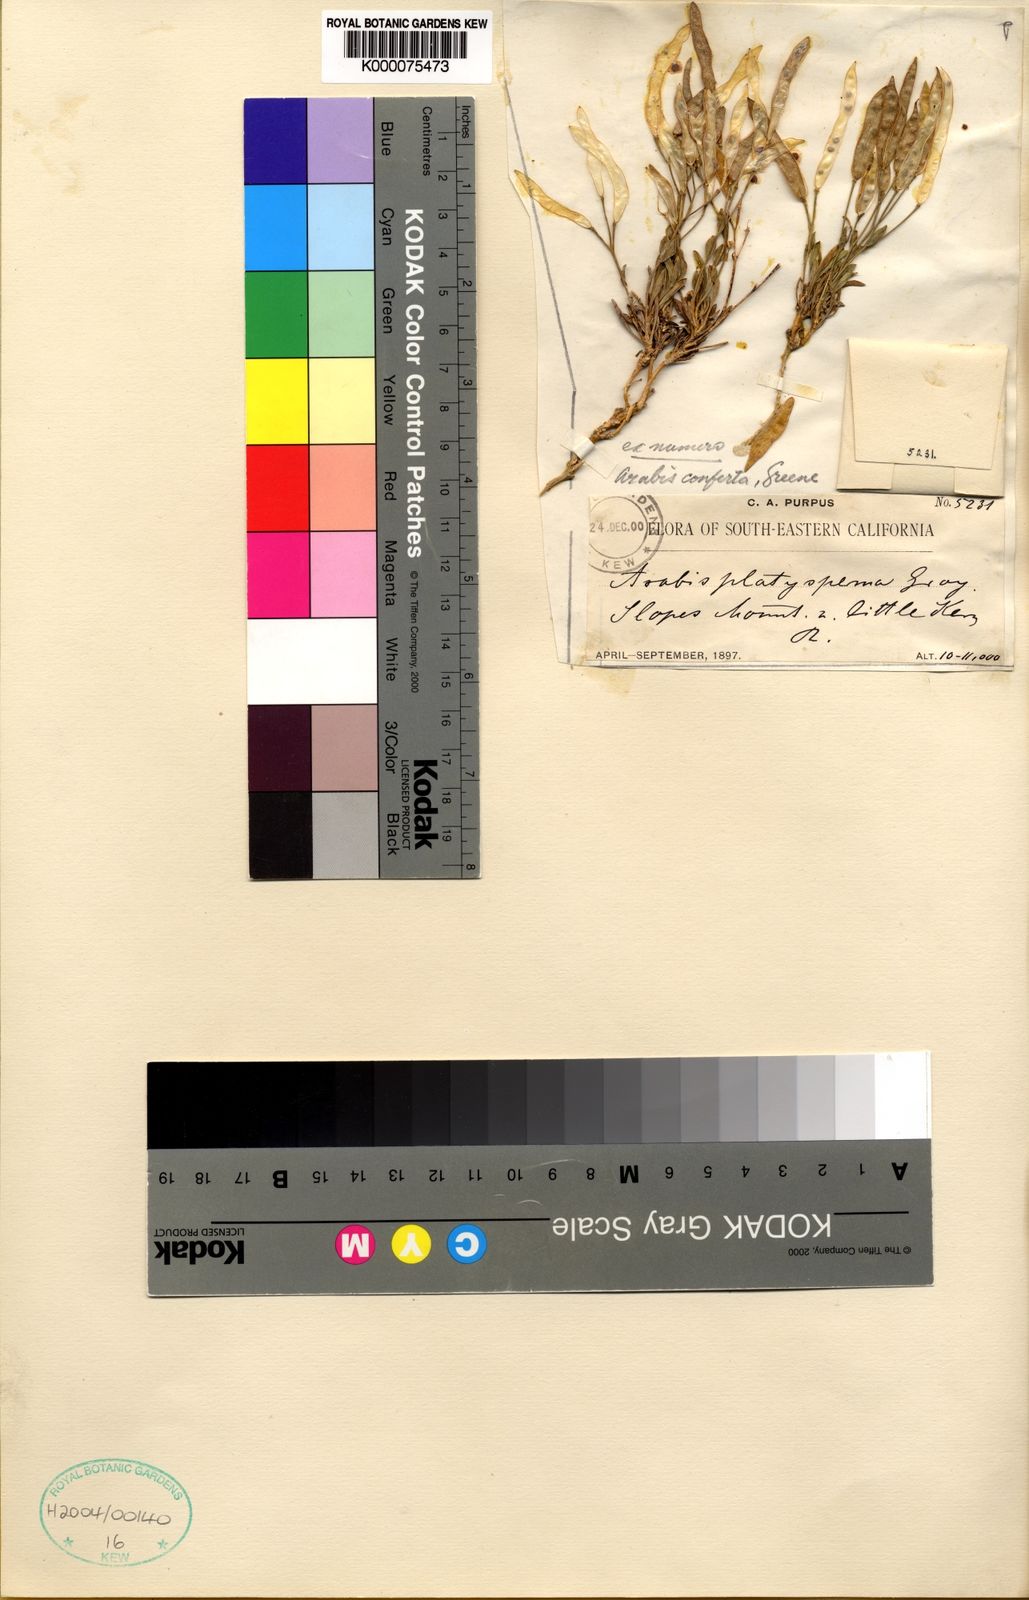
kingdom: Plantae
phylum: Tracheophyta
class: Magnoliopsida
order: Brassicales
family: Brassicaceae
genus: Boechera
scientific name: Boechera howellii
